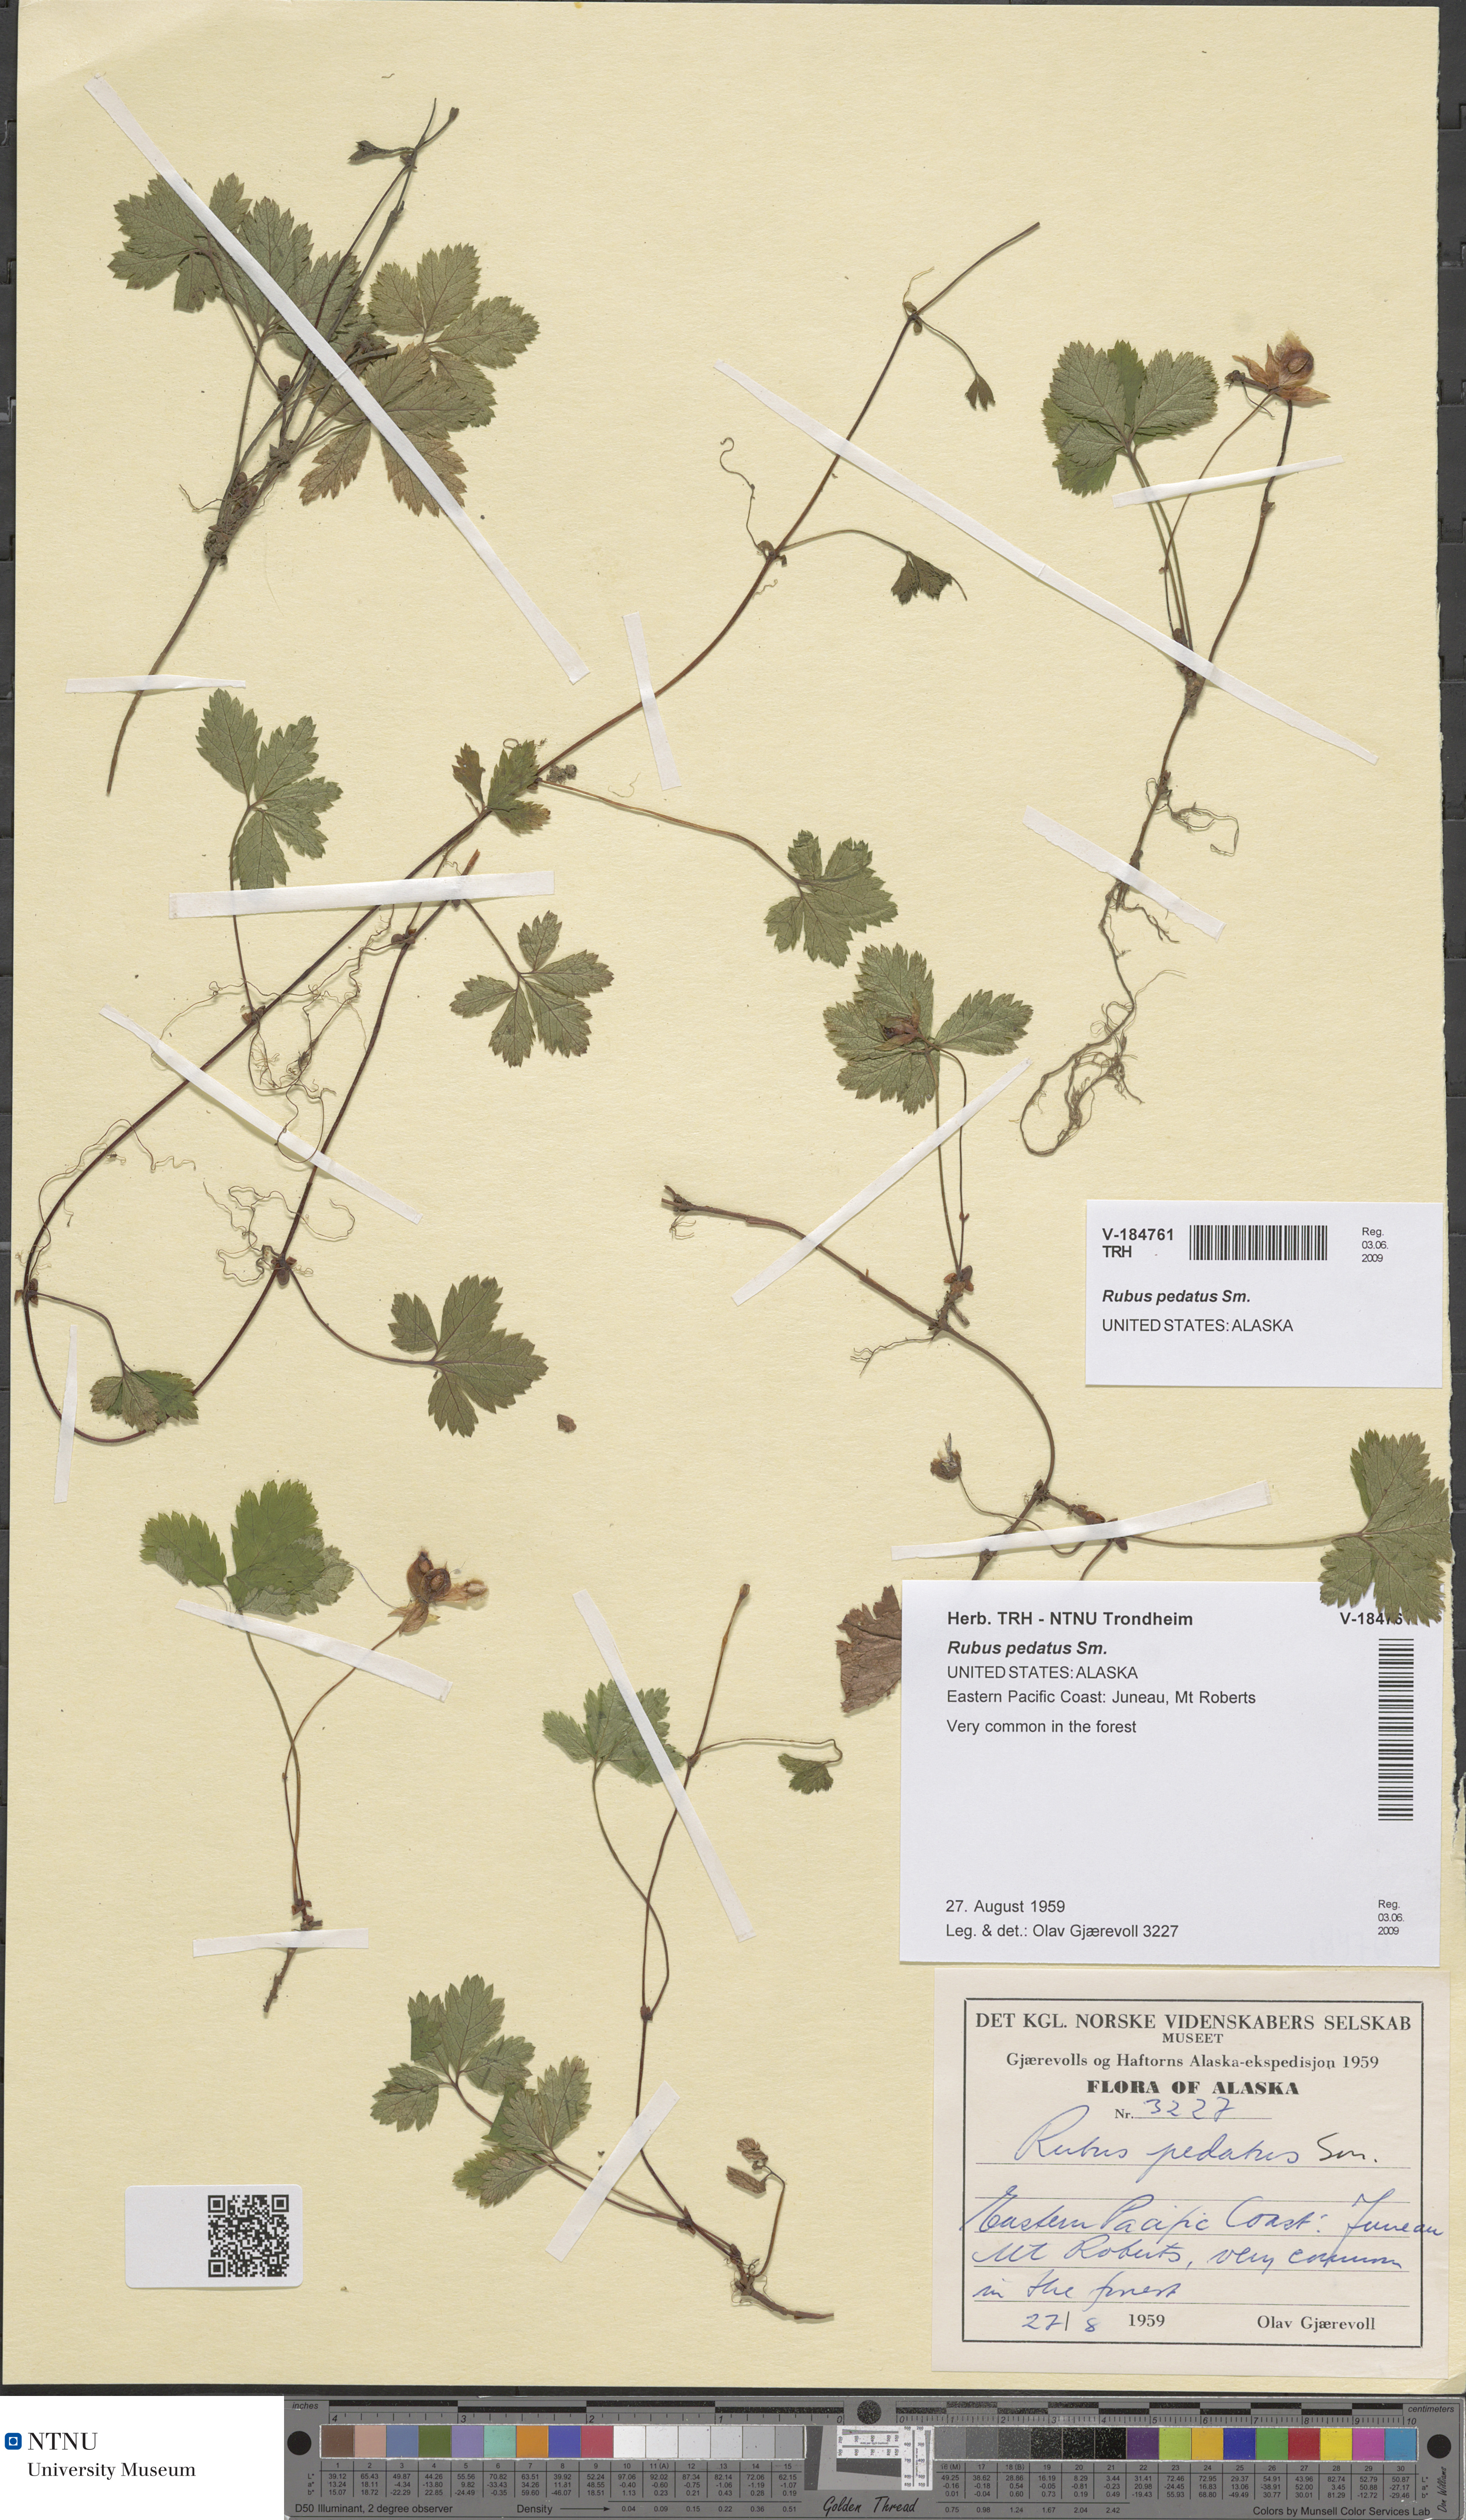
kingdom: Plantae
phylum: Tracheophyta
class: Magnoliopsida
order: Rosales
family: Rosaceae
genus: Rubus
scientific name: Rubus pedatus
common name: Creeping raspberry
